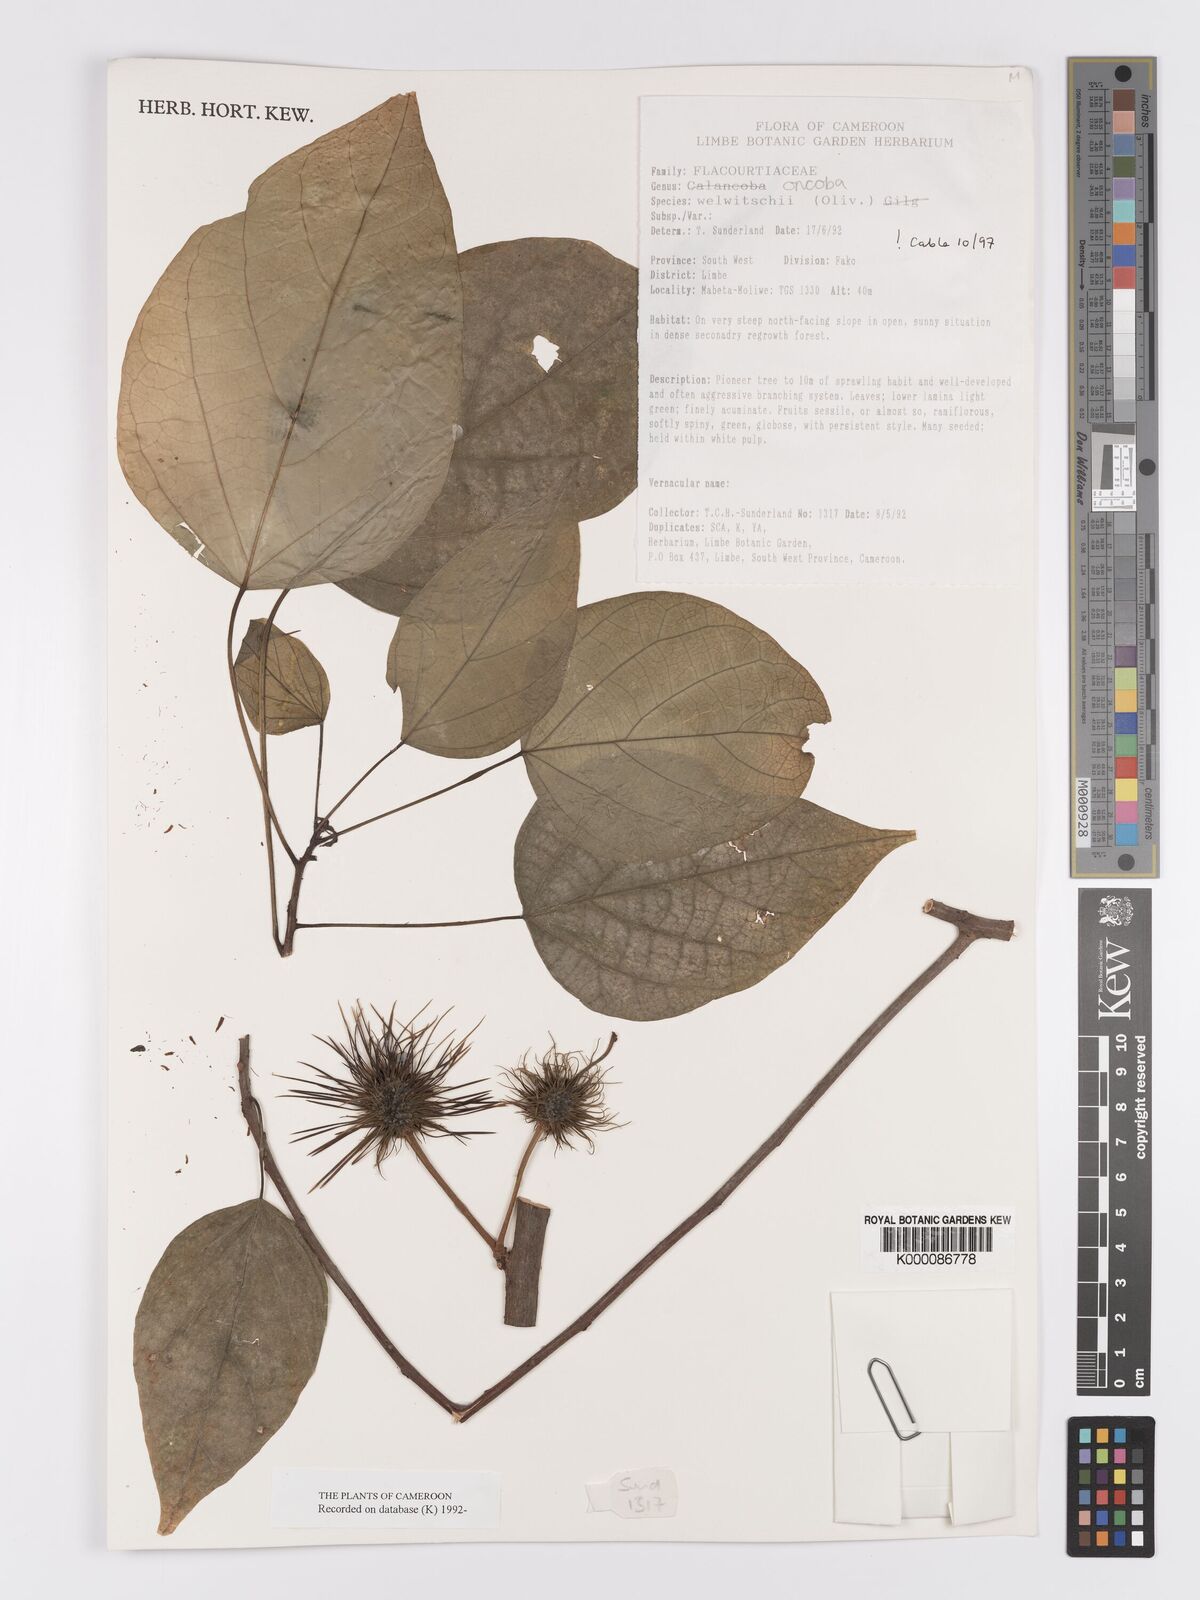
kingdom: Plantae
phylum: Tracheophyta
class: Magnoliopsida
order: Malpighiales
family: Achariaceae
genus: Caloncoba
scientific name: Caloncoba welwitschii
